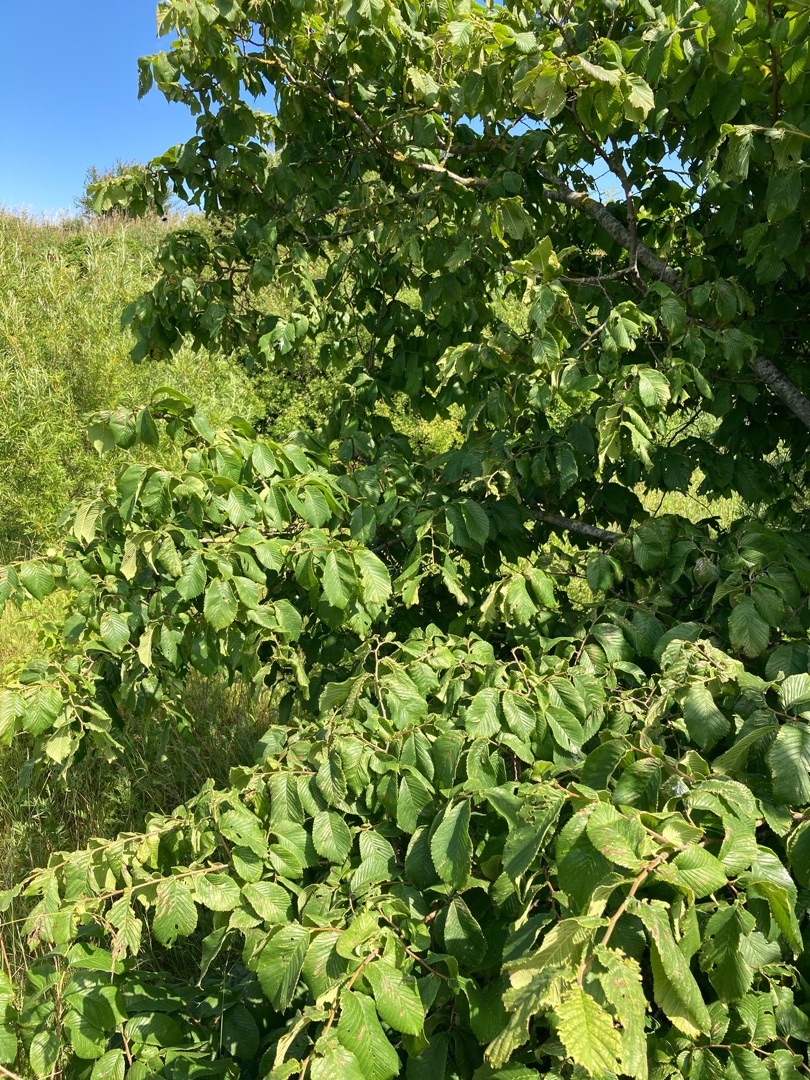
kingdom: Plantae
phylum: Tracheophyta
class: Magnoliopsida
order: Rosales
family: Ulmaceae
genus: Ulmus
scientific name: Ulmus glabra
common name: Skov-elm/storbladet elm
